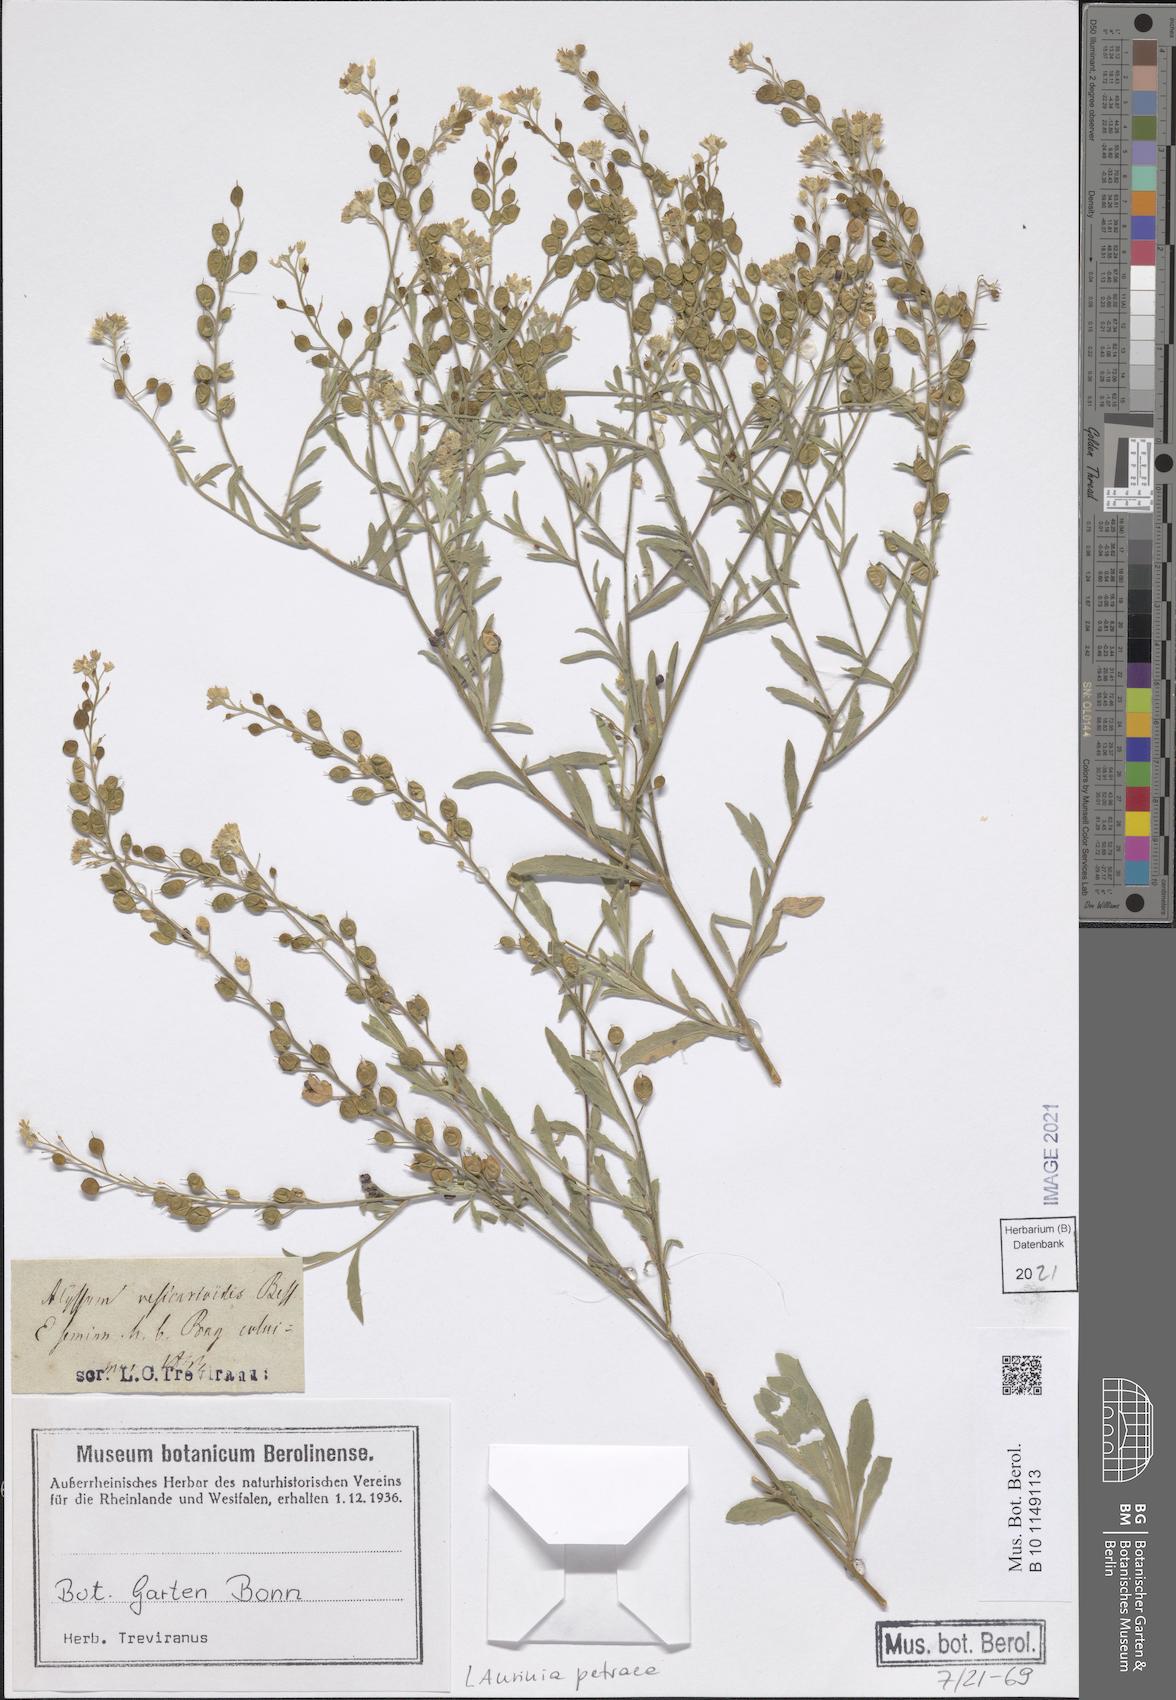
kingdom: Plantae
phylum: Tracheophyta
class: Magnoliopsida
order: Brassicales
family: Brassicaceae
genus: Aurinia
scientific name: Aurinia petraea
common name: Goldentuft
